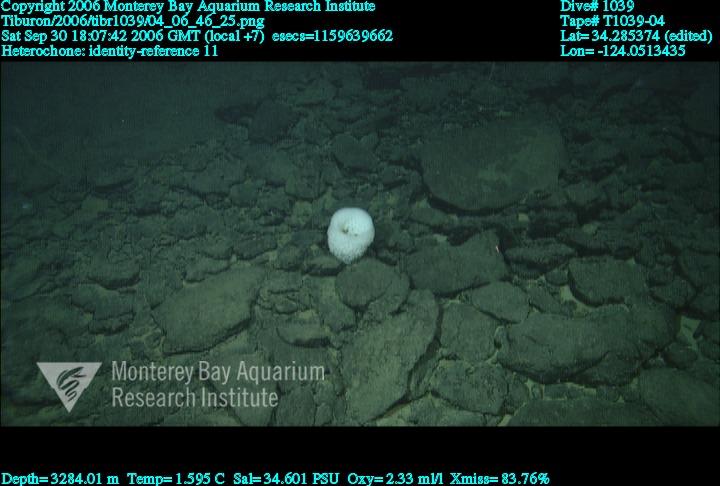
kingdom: Animalia
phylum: Porifera
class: Hexactinellida
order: Sceptrulophora
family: Aphrocallistidae
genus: Heterochone
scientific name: Heterochone
